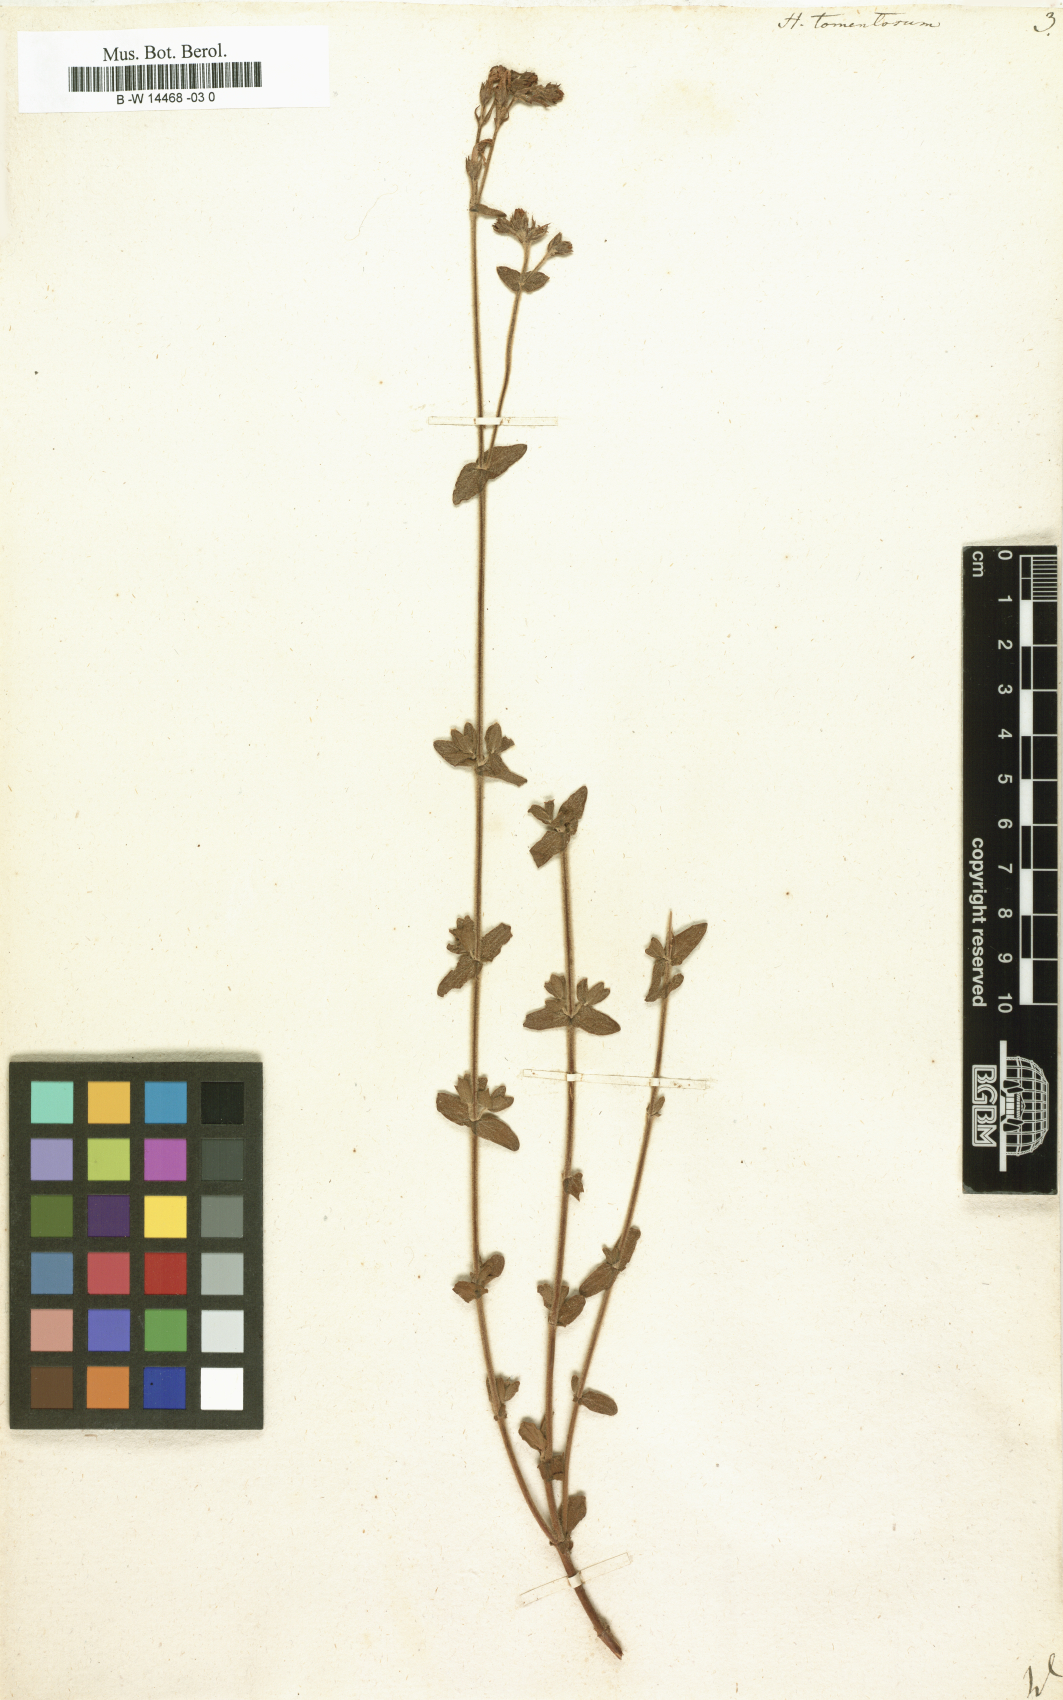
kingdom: Plantae
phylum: Tracheophyta
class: Magnoliopsida
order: Malpighiales
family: Hypericaceae
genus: Hypericum
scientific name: Hypericum tomentosum
